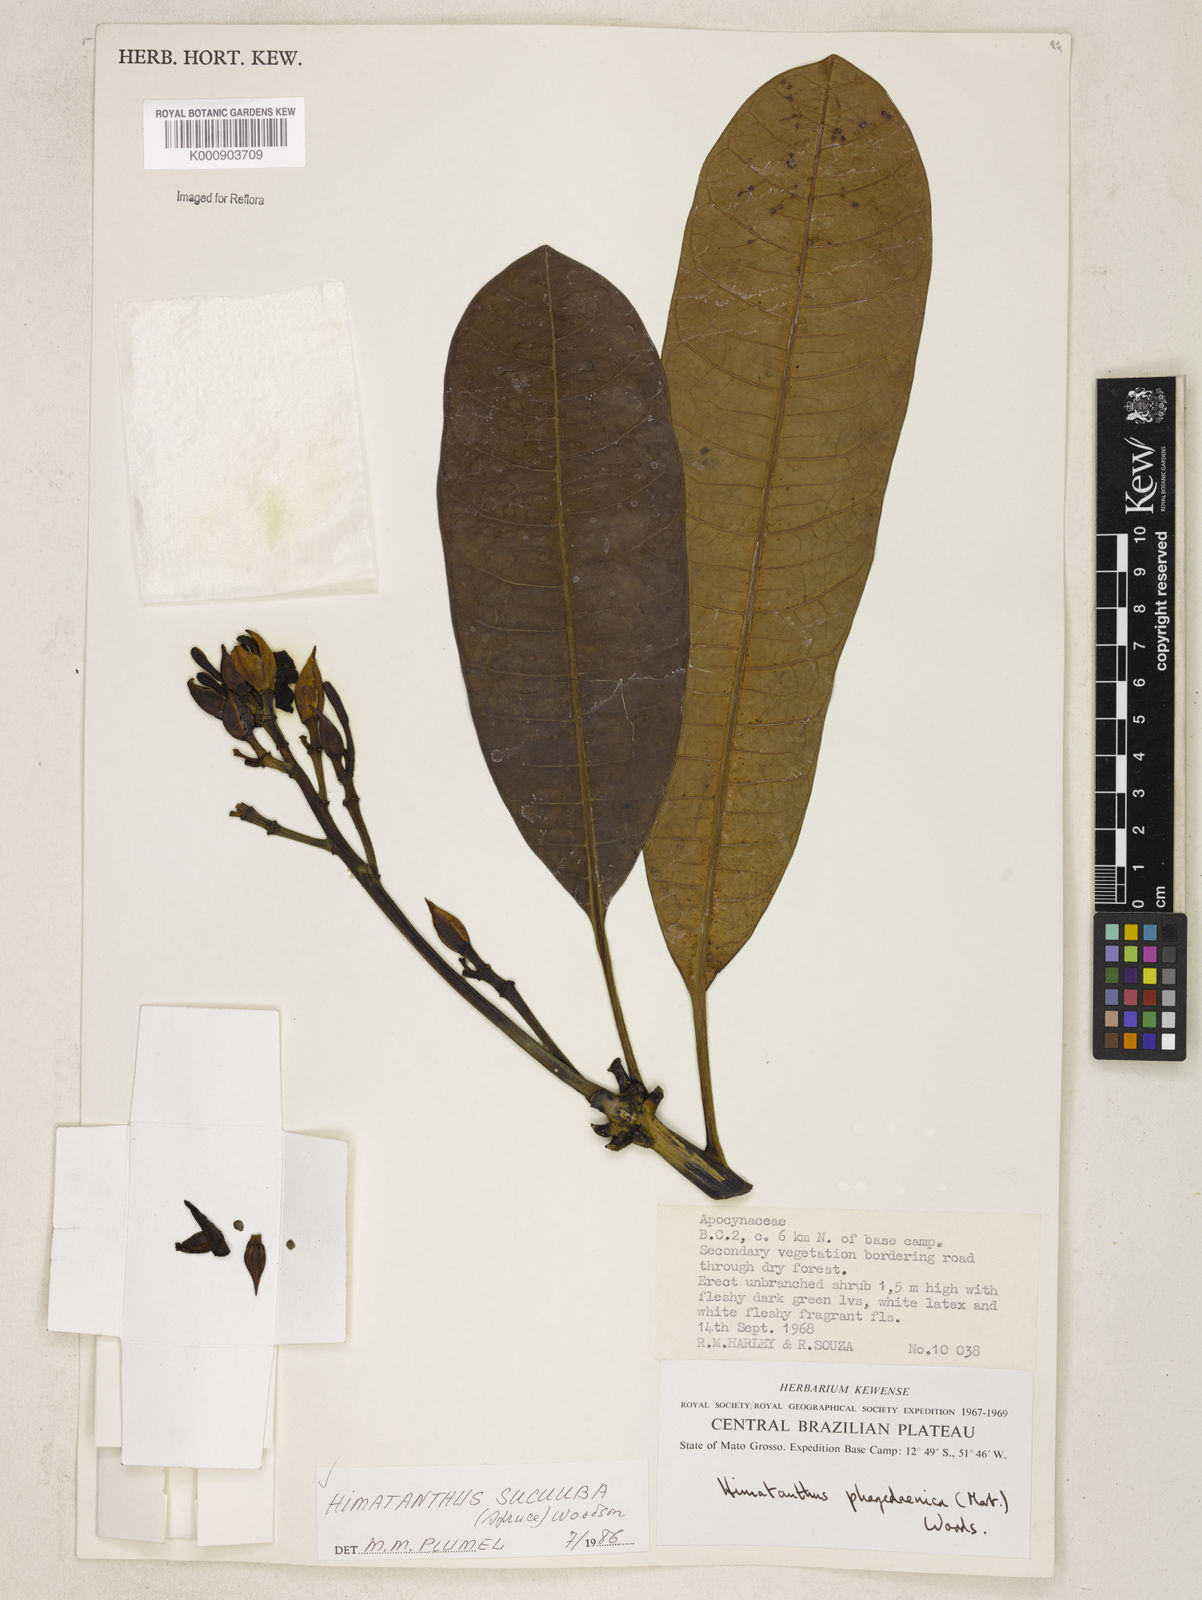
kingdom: Plantae
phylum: Tracheophyta
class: Magnoliopsida
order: Gentianales
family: Apocynaceae
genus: Himatanthus
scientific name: Himatanthus articulatus
